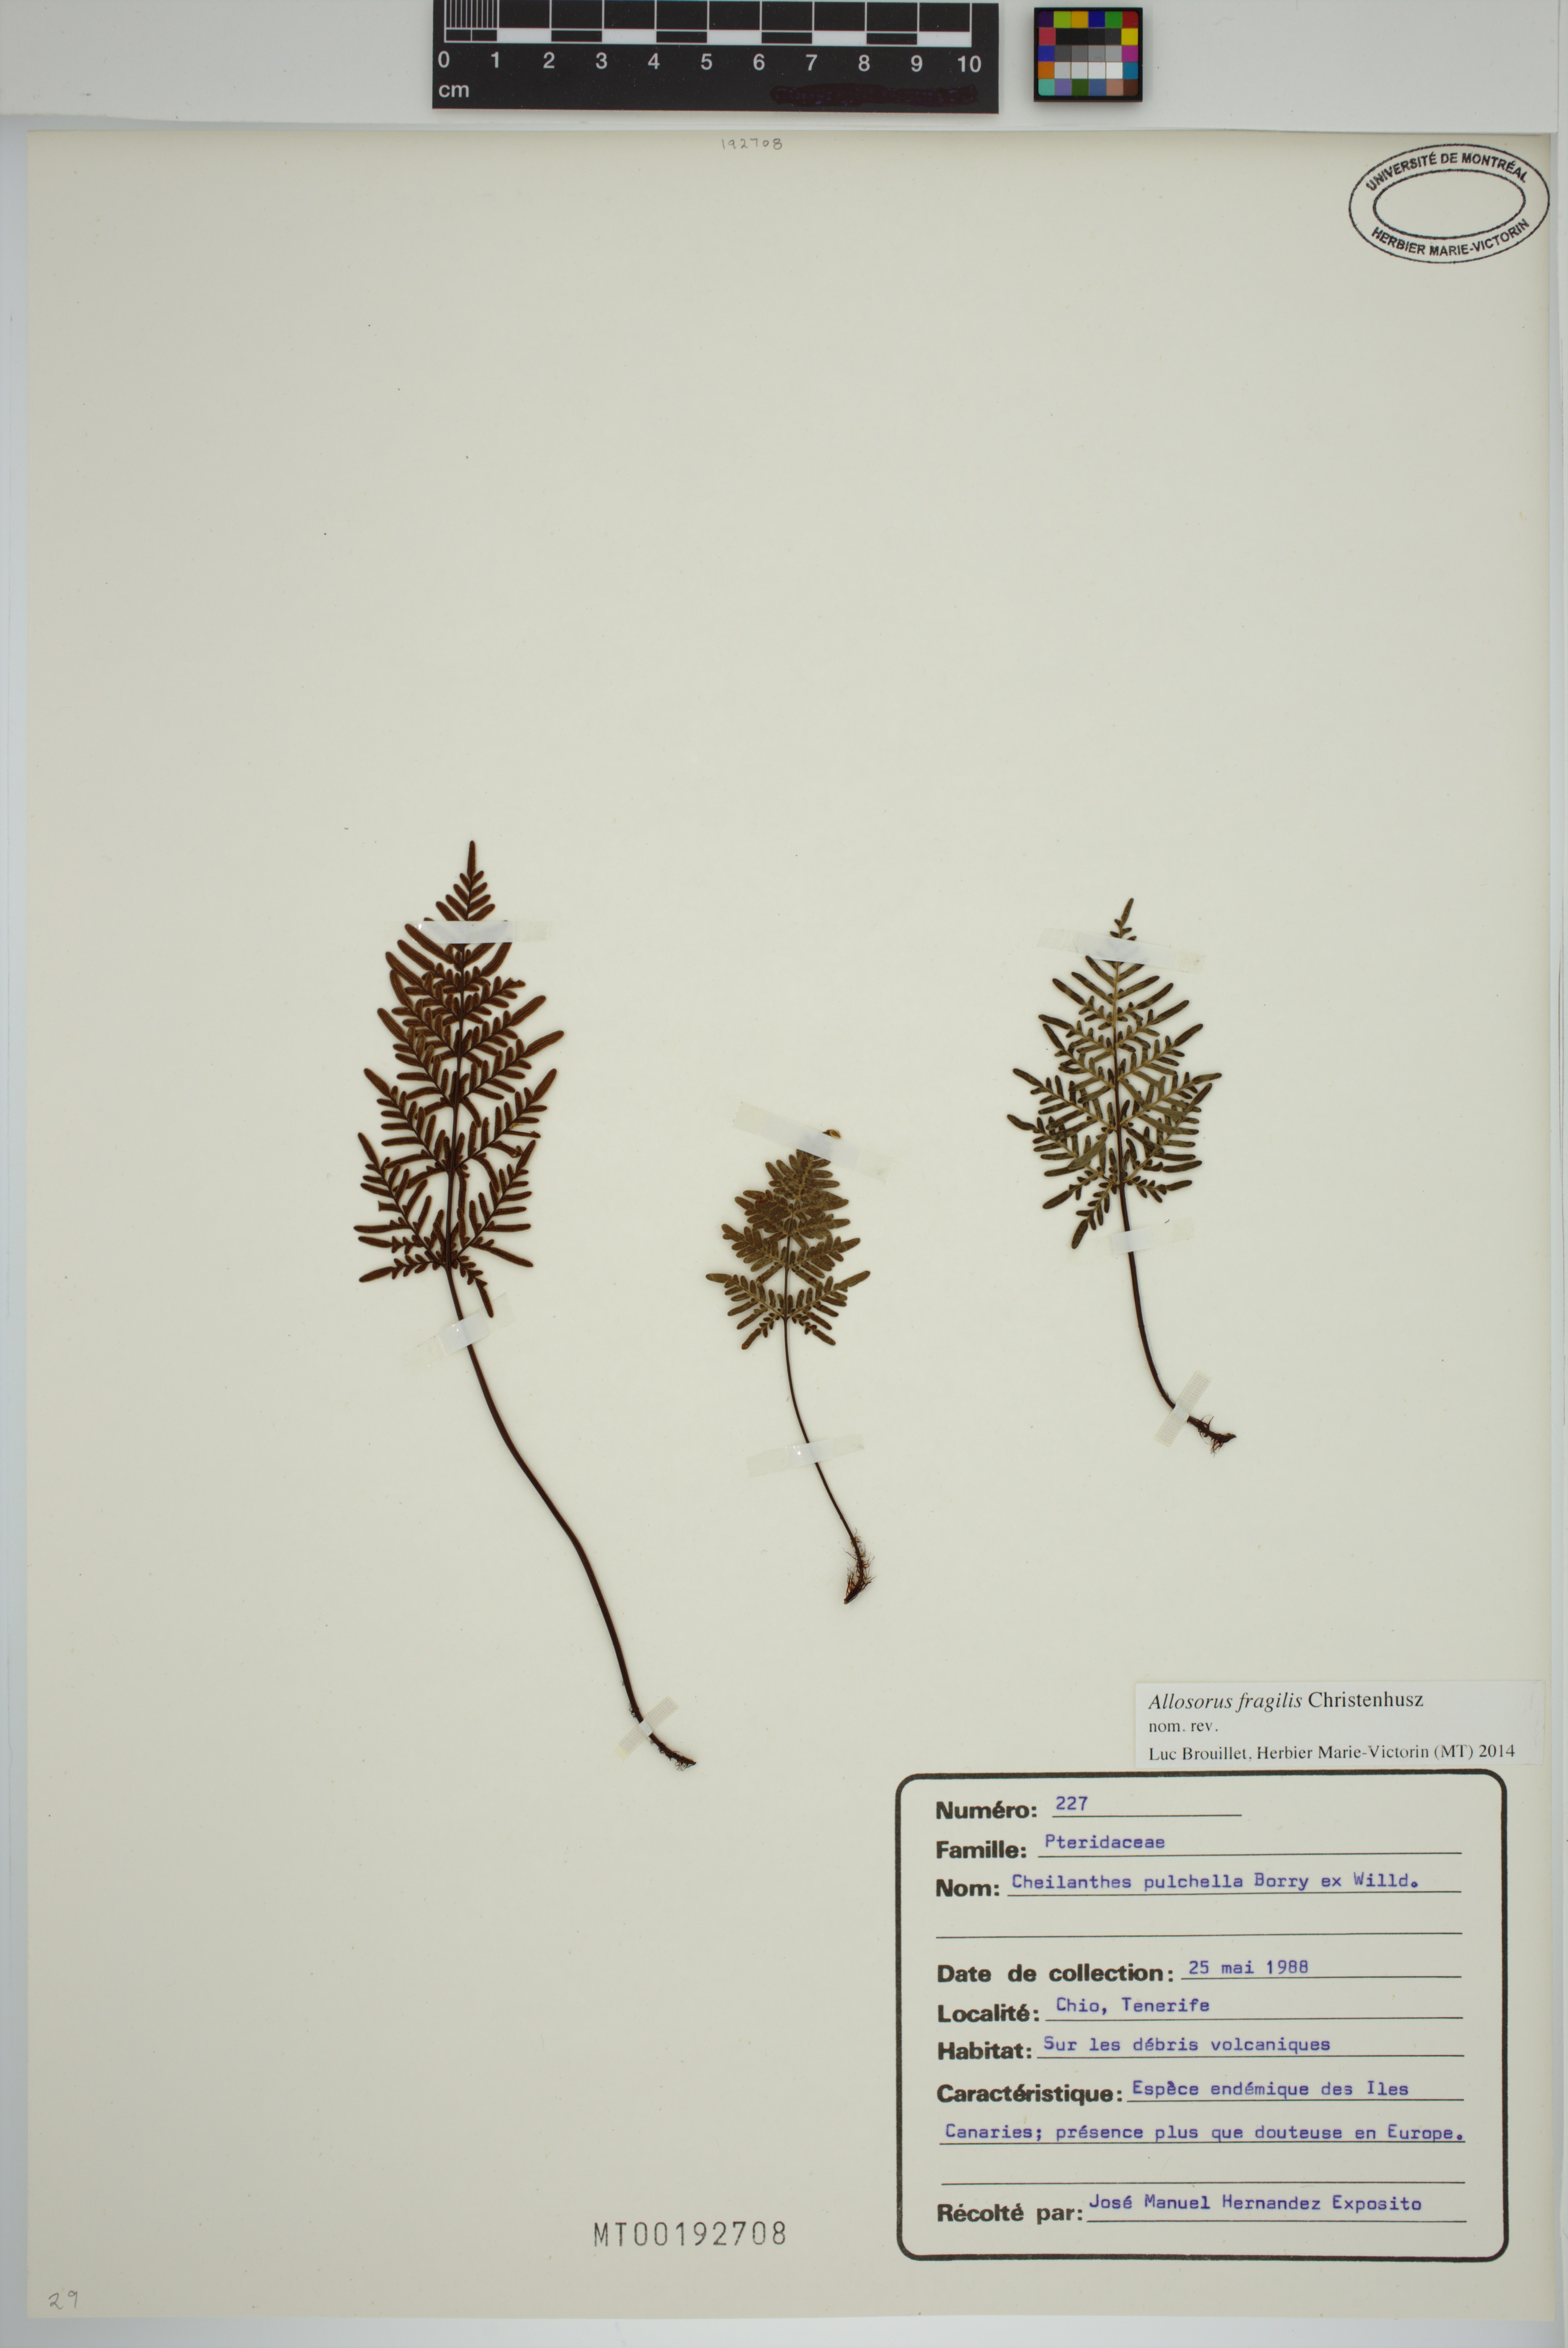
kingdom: Plantae
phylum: Tracheophyta
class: Polypodiopsida
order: Polypodiales
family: Pteridaceae
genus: Oeosporangium
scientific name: Oeosporangium pulchellum
